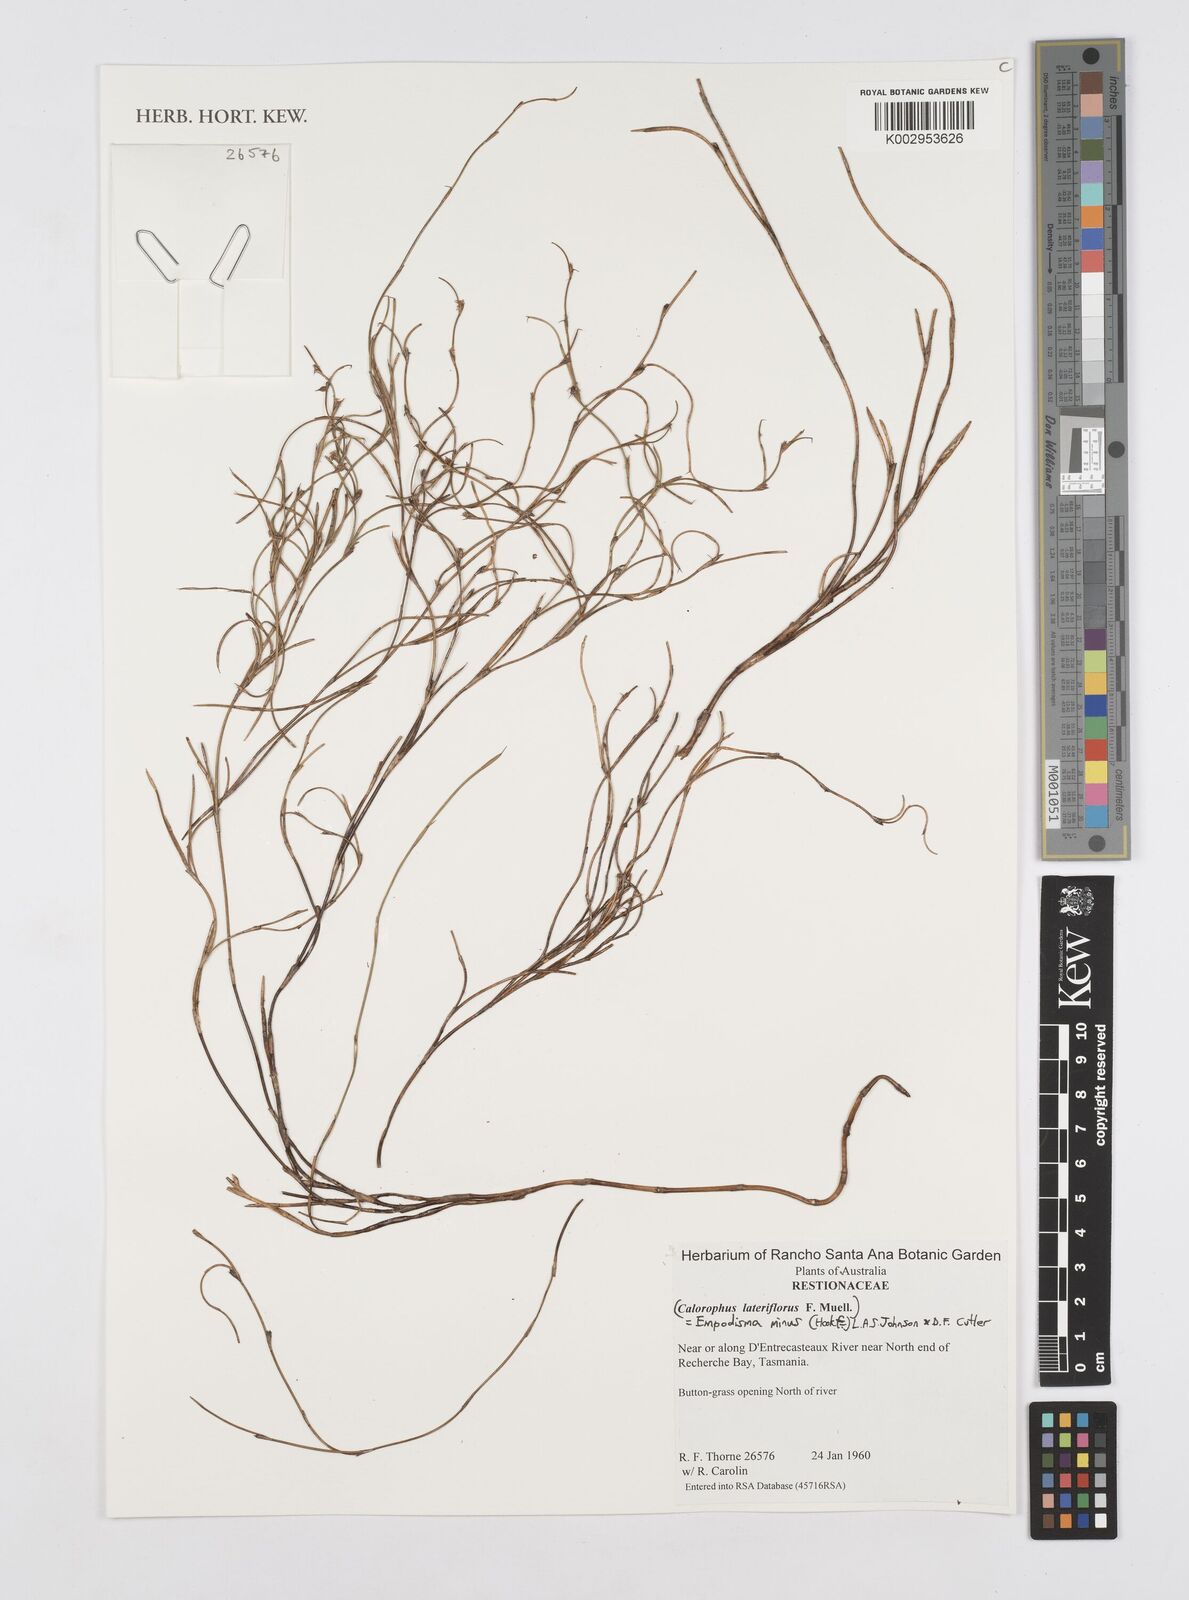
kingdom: Plantae
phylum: Tracheophyta
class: Liliopsida
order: Poales
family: Restionaceae
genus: Empodisma
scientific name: Empodisma minus
